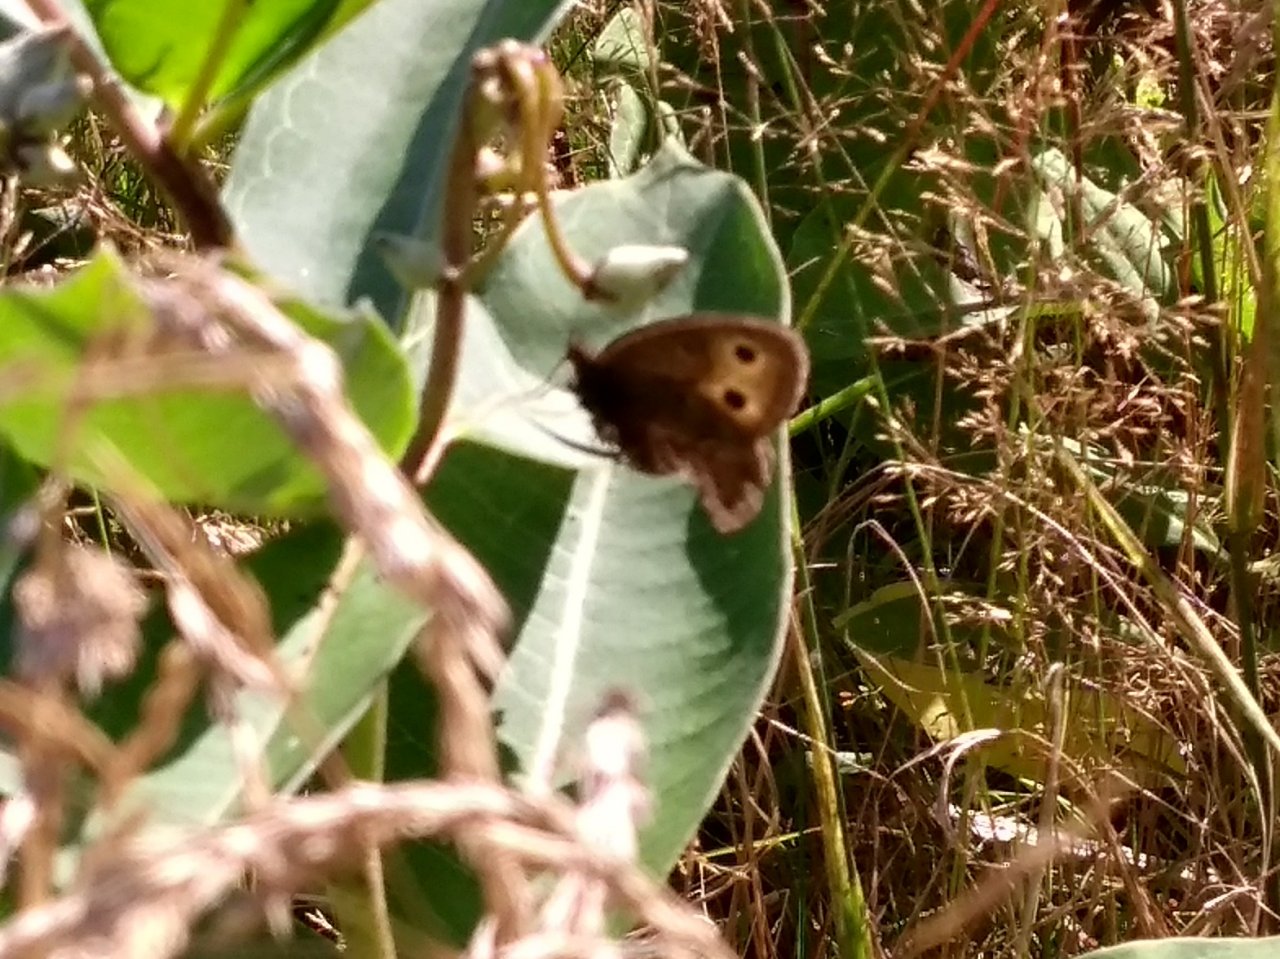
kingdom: Animalia
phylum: Arthropoda
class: Insecta
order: Lepidoptera
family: Nymphalidae
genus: Cercyonis
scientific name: Cercyonis pegala
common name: Common Wood-Nymph
